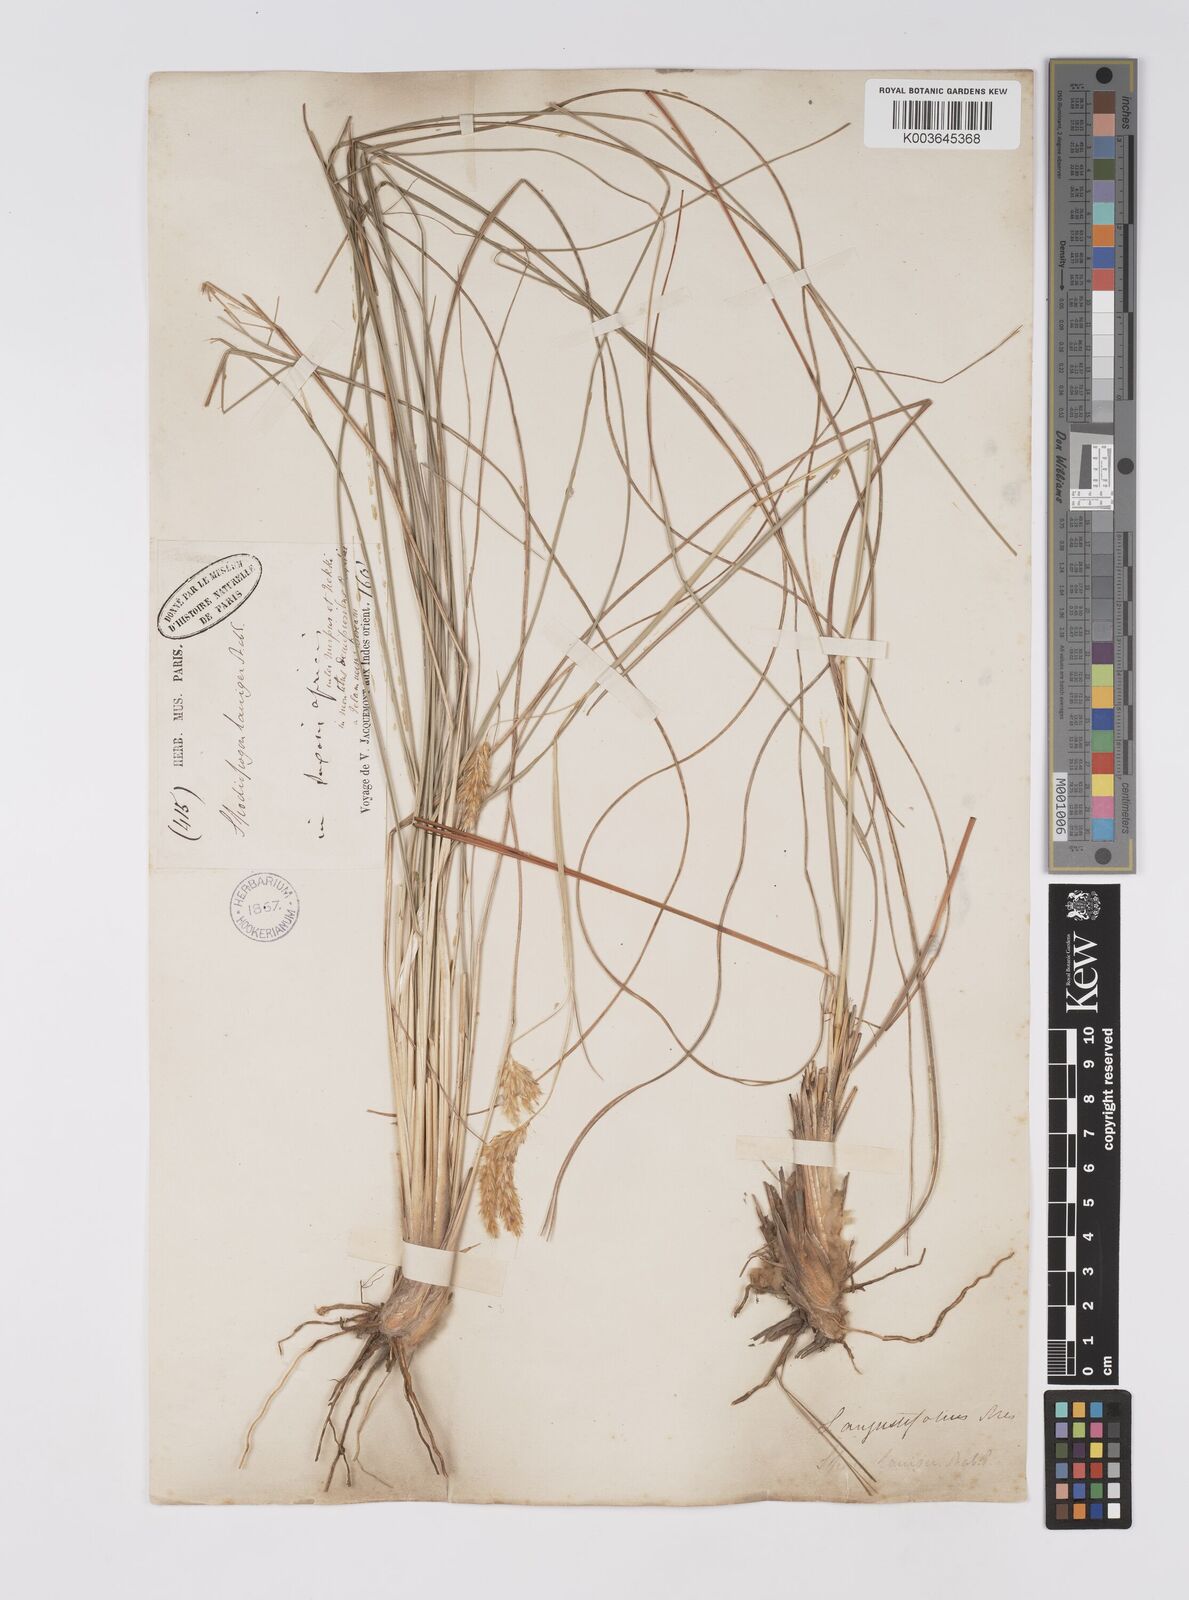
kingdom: Plantae
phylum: Tracheophyta
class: Liliopsida
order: Poales
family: Poaceae
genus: Eulaliopsis
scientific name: Eulaliopsis binata
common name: Baib grass
